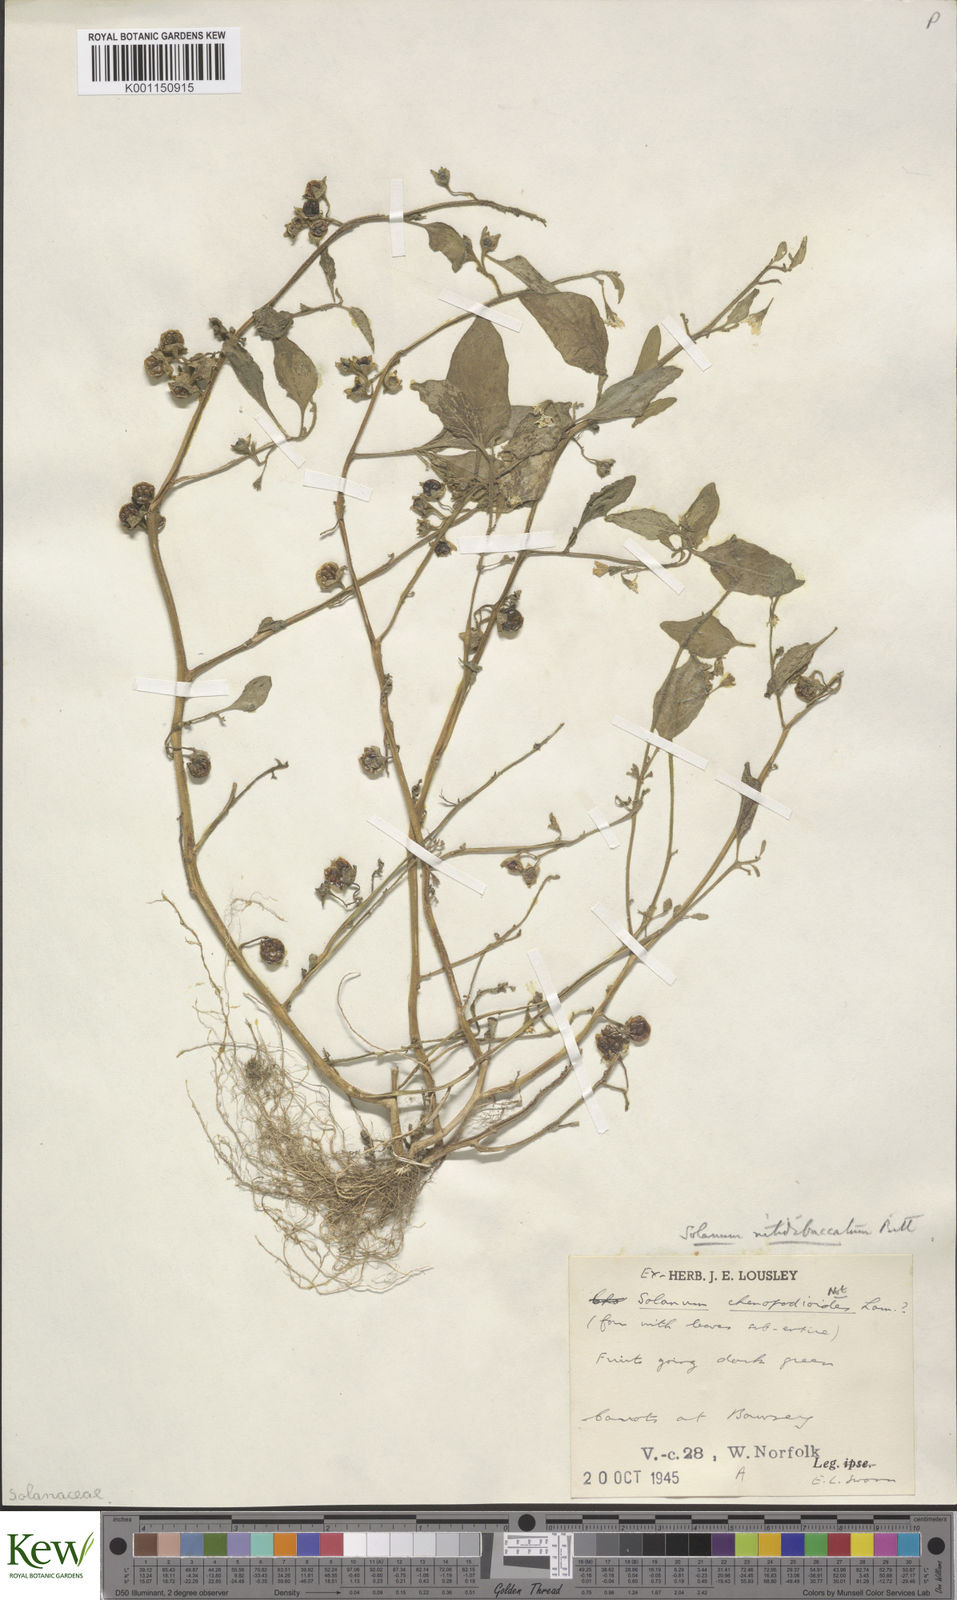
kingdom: Plantae
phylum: Tracheophyta
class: Magnoliopsida
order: Solanales
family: Solanaceae
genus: Solanum
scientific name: Solanum nitidibaccatum
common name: Hairy nightshade
